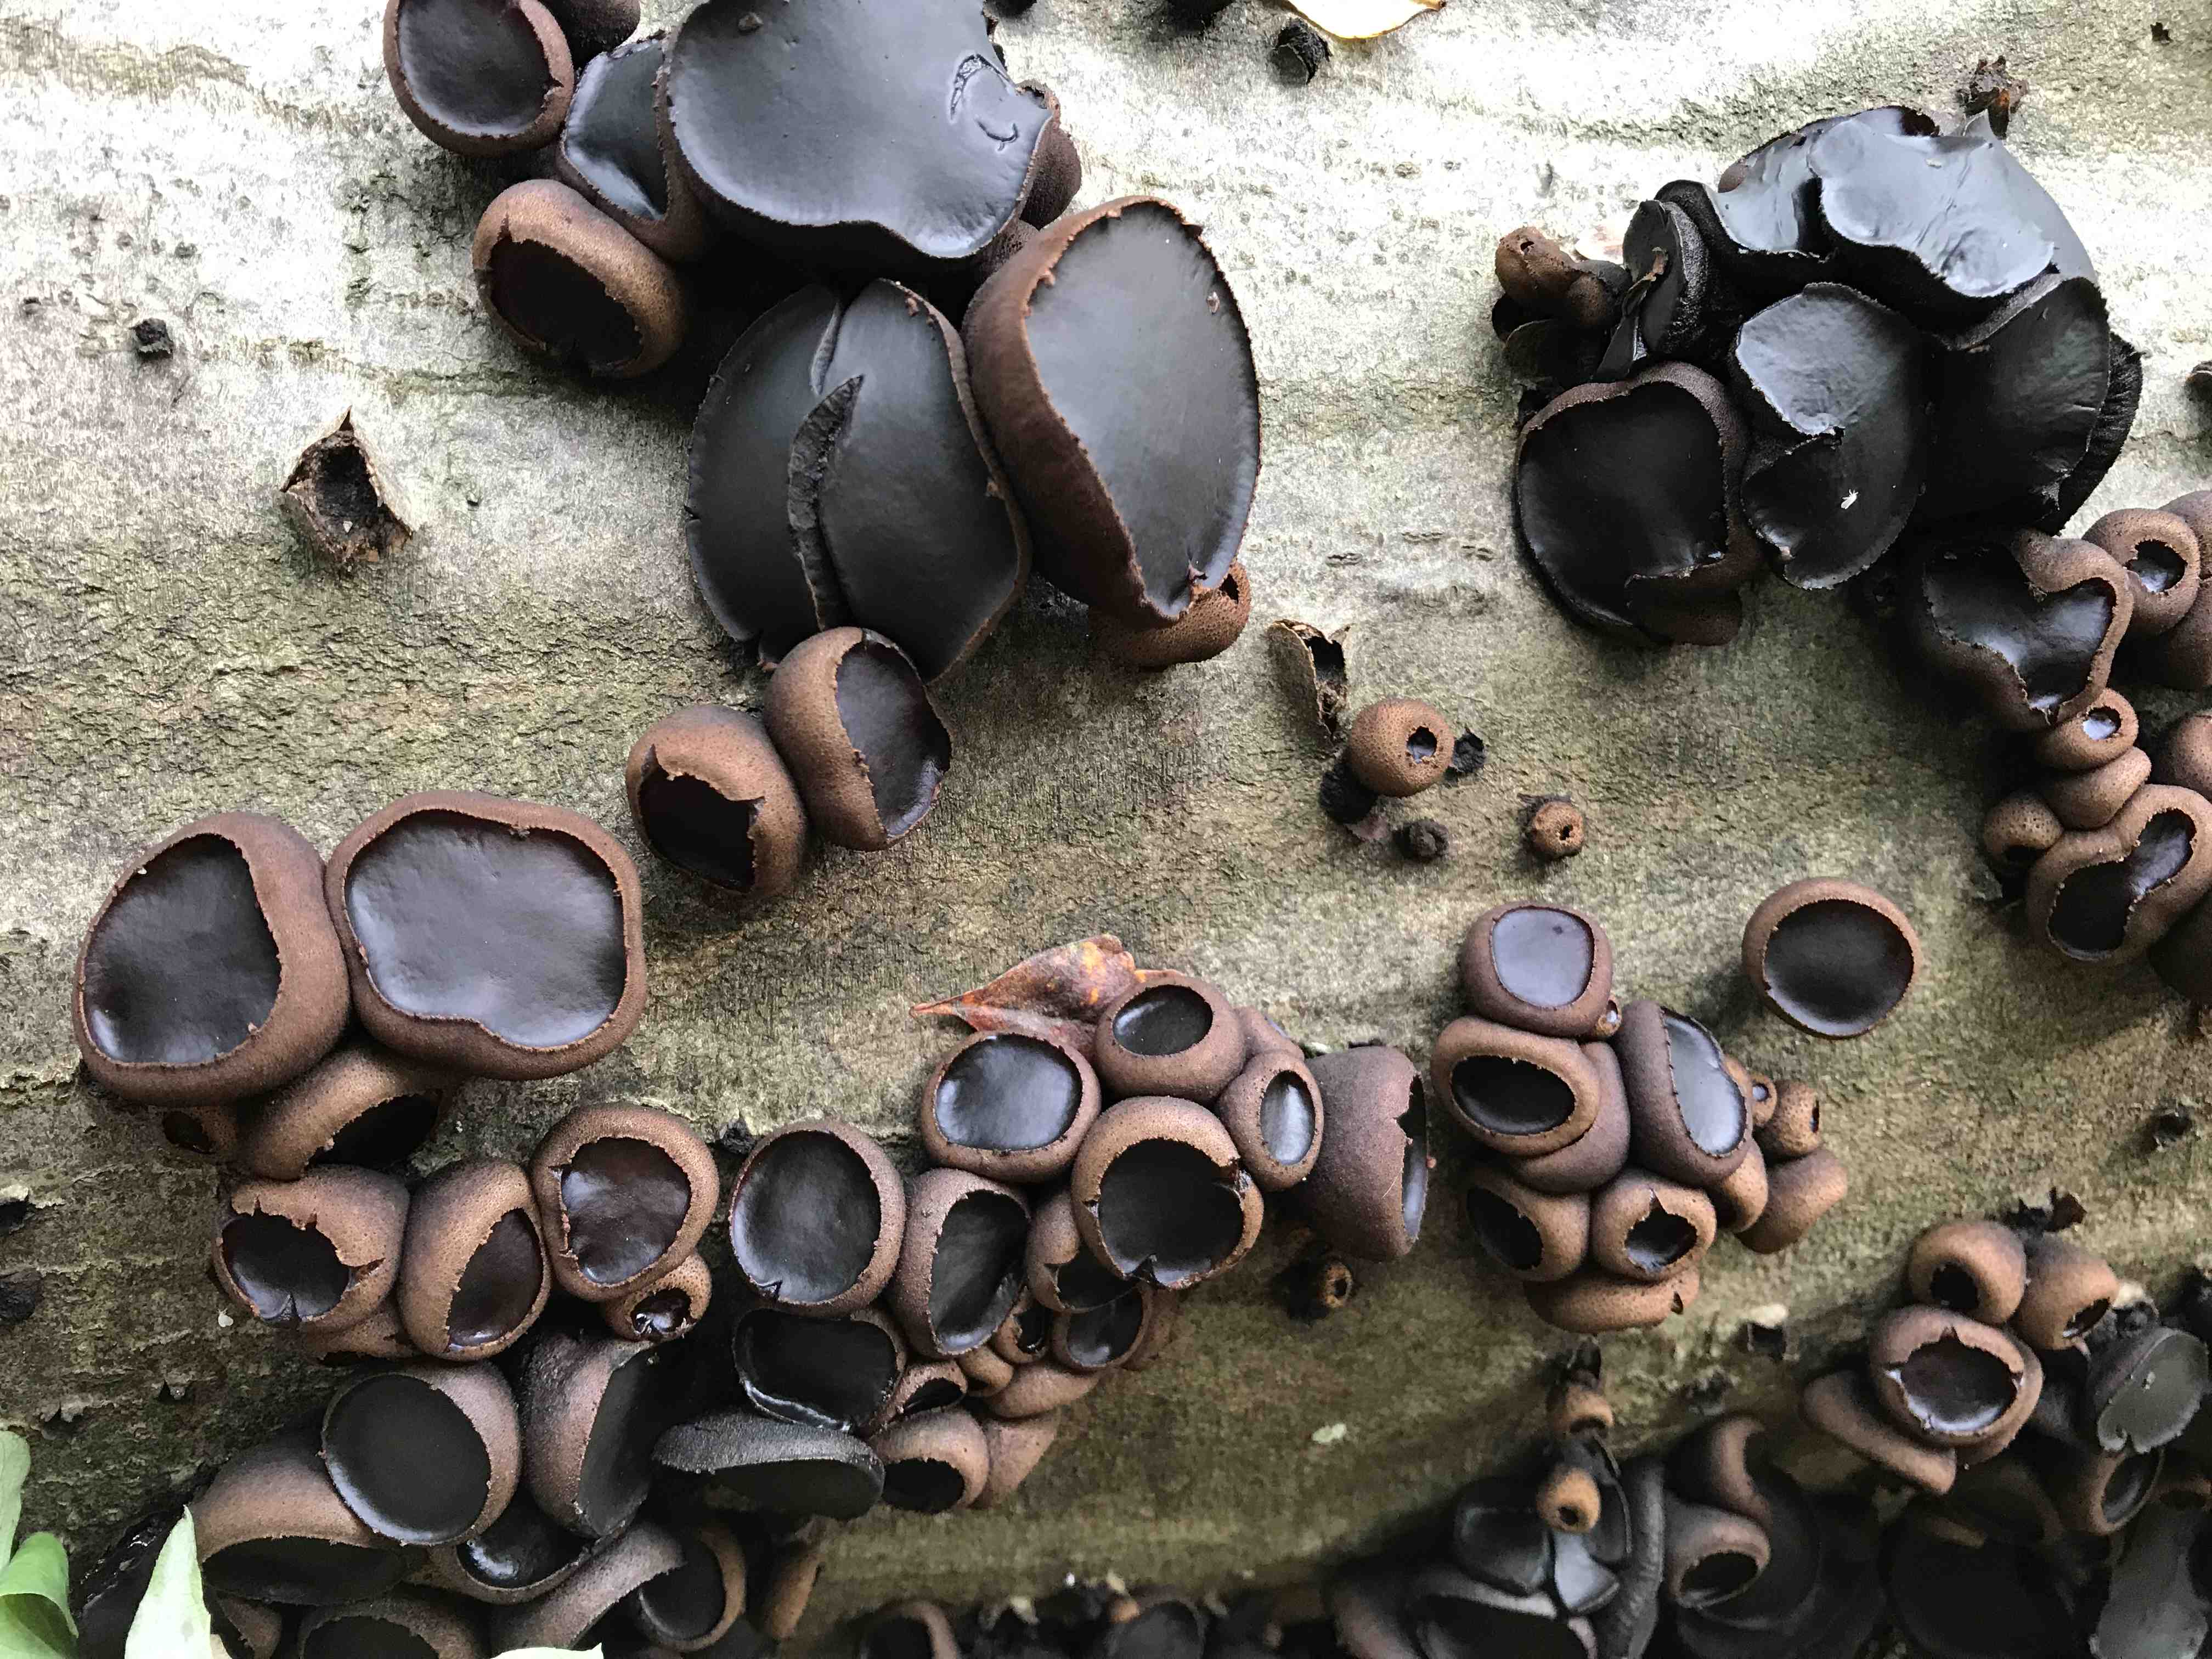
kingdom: Fungi
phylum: Ascomycota
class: Leotiomycetes
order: Phacidiales
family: Phacidiaceae
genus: Bulgaria
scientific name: Bulgaria inquinans
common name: afsmittende topsvamp
